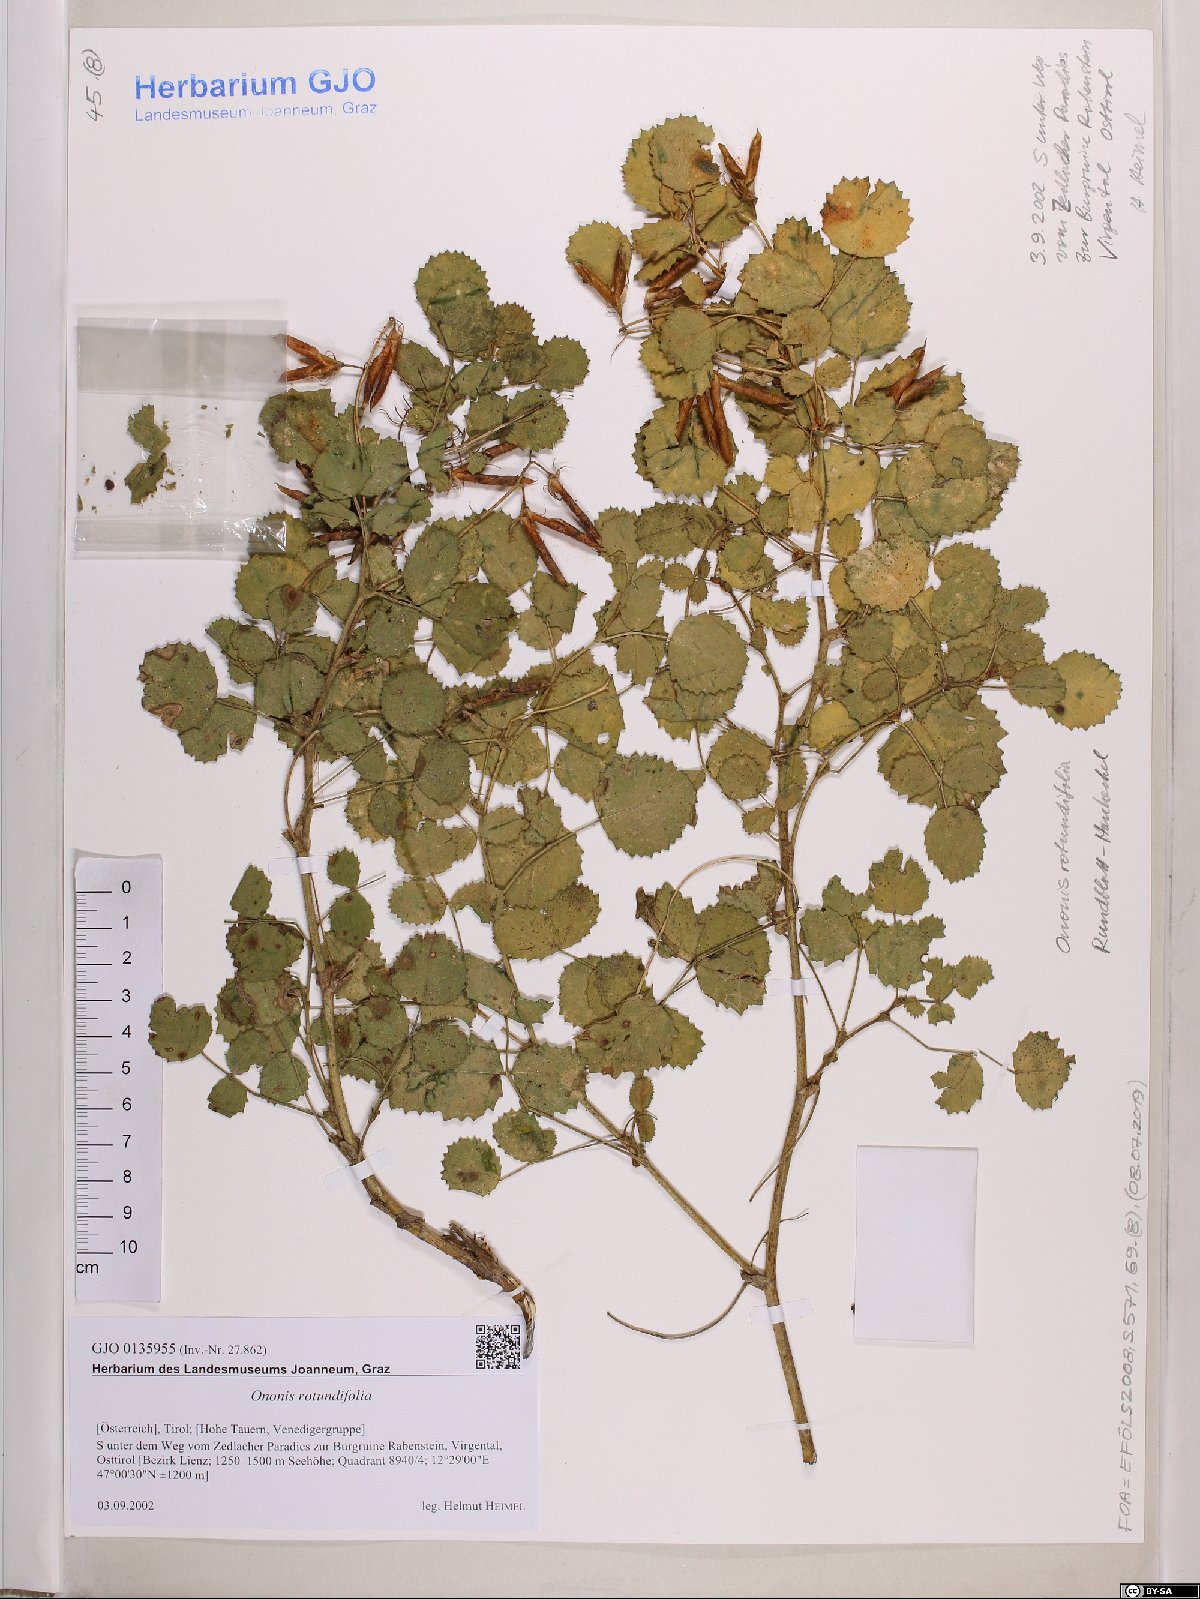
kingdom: Plantae
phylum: Tracheophyta
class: Magnoliopsida
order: Fabales
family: Fabaceae
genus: Ononis
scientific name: Ononis rotundifolia
